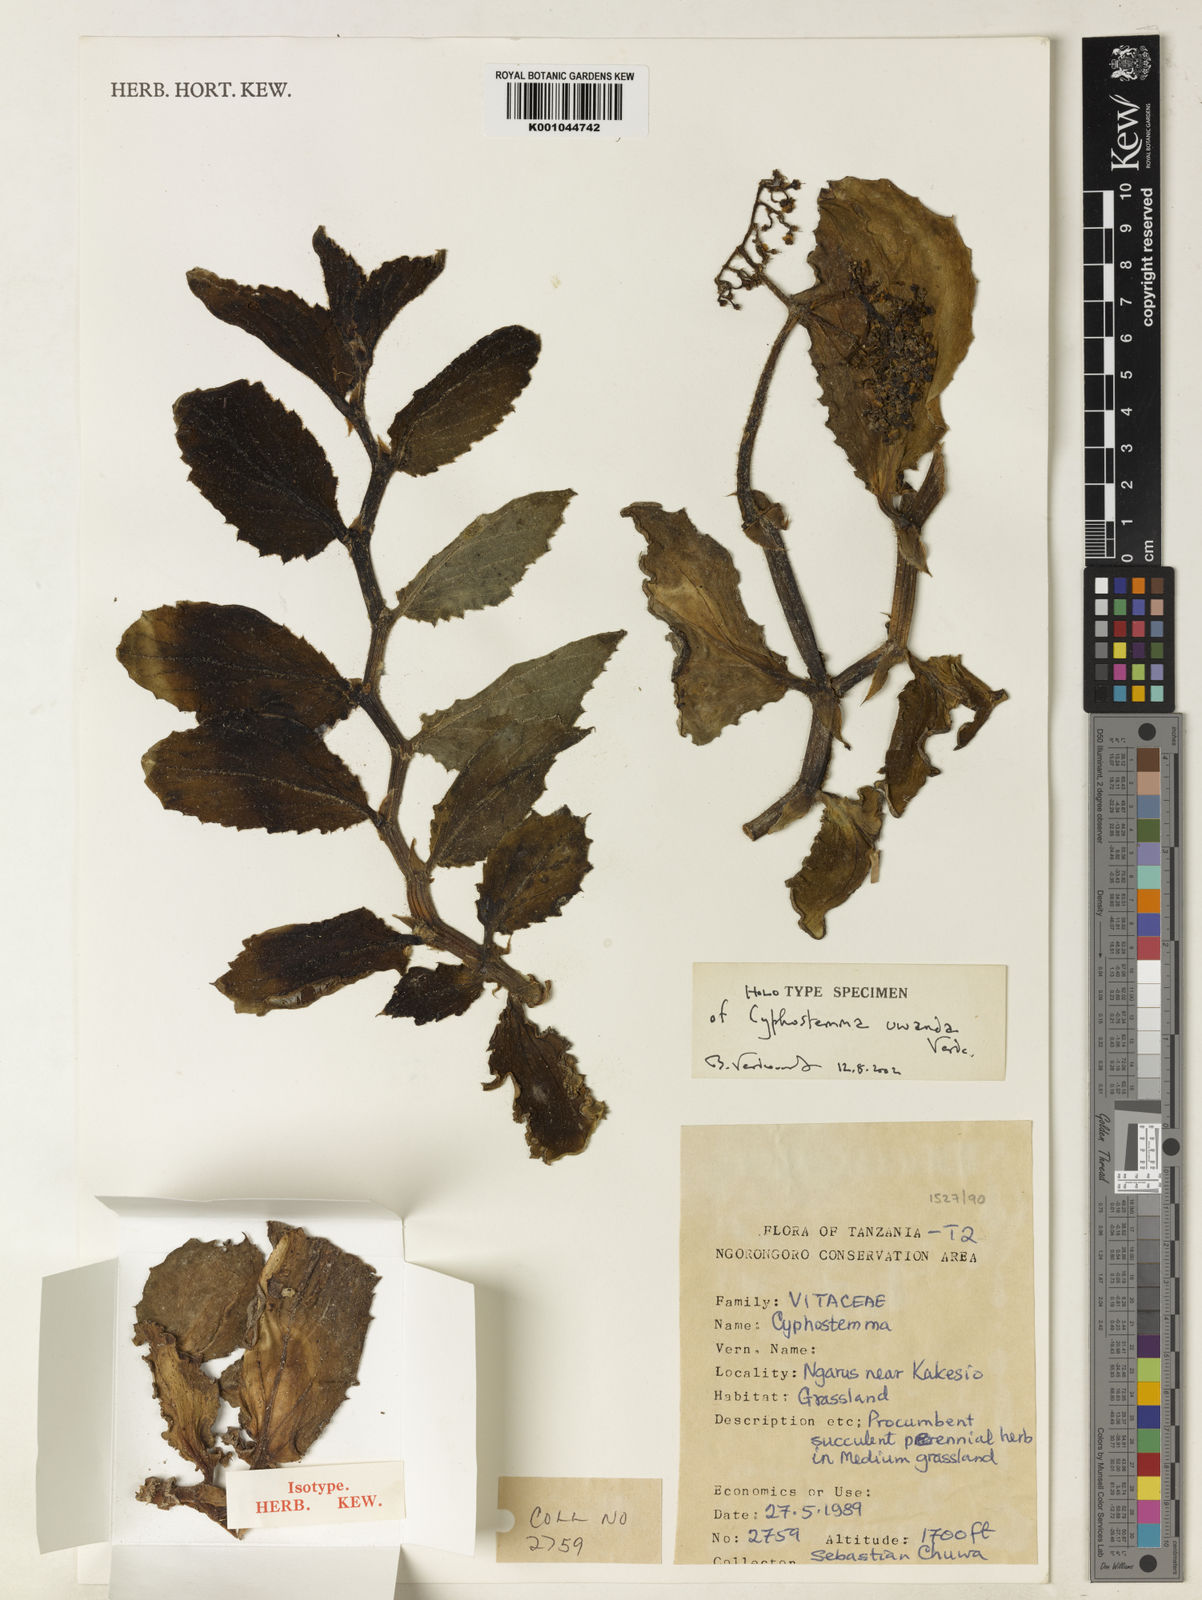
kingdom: Plantae
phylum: Tracheophyta
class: Magnoliopsida
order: Vitales
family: Vitaceae
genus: Cyphostemma
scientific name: Cyphostemma uwanda
